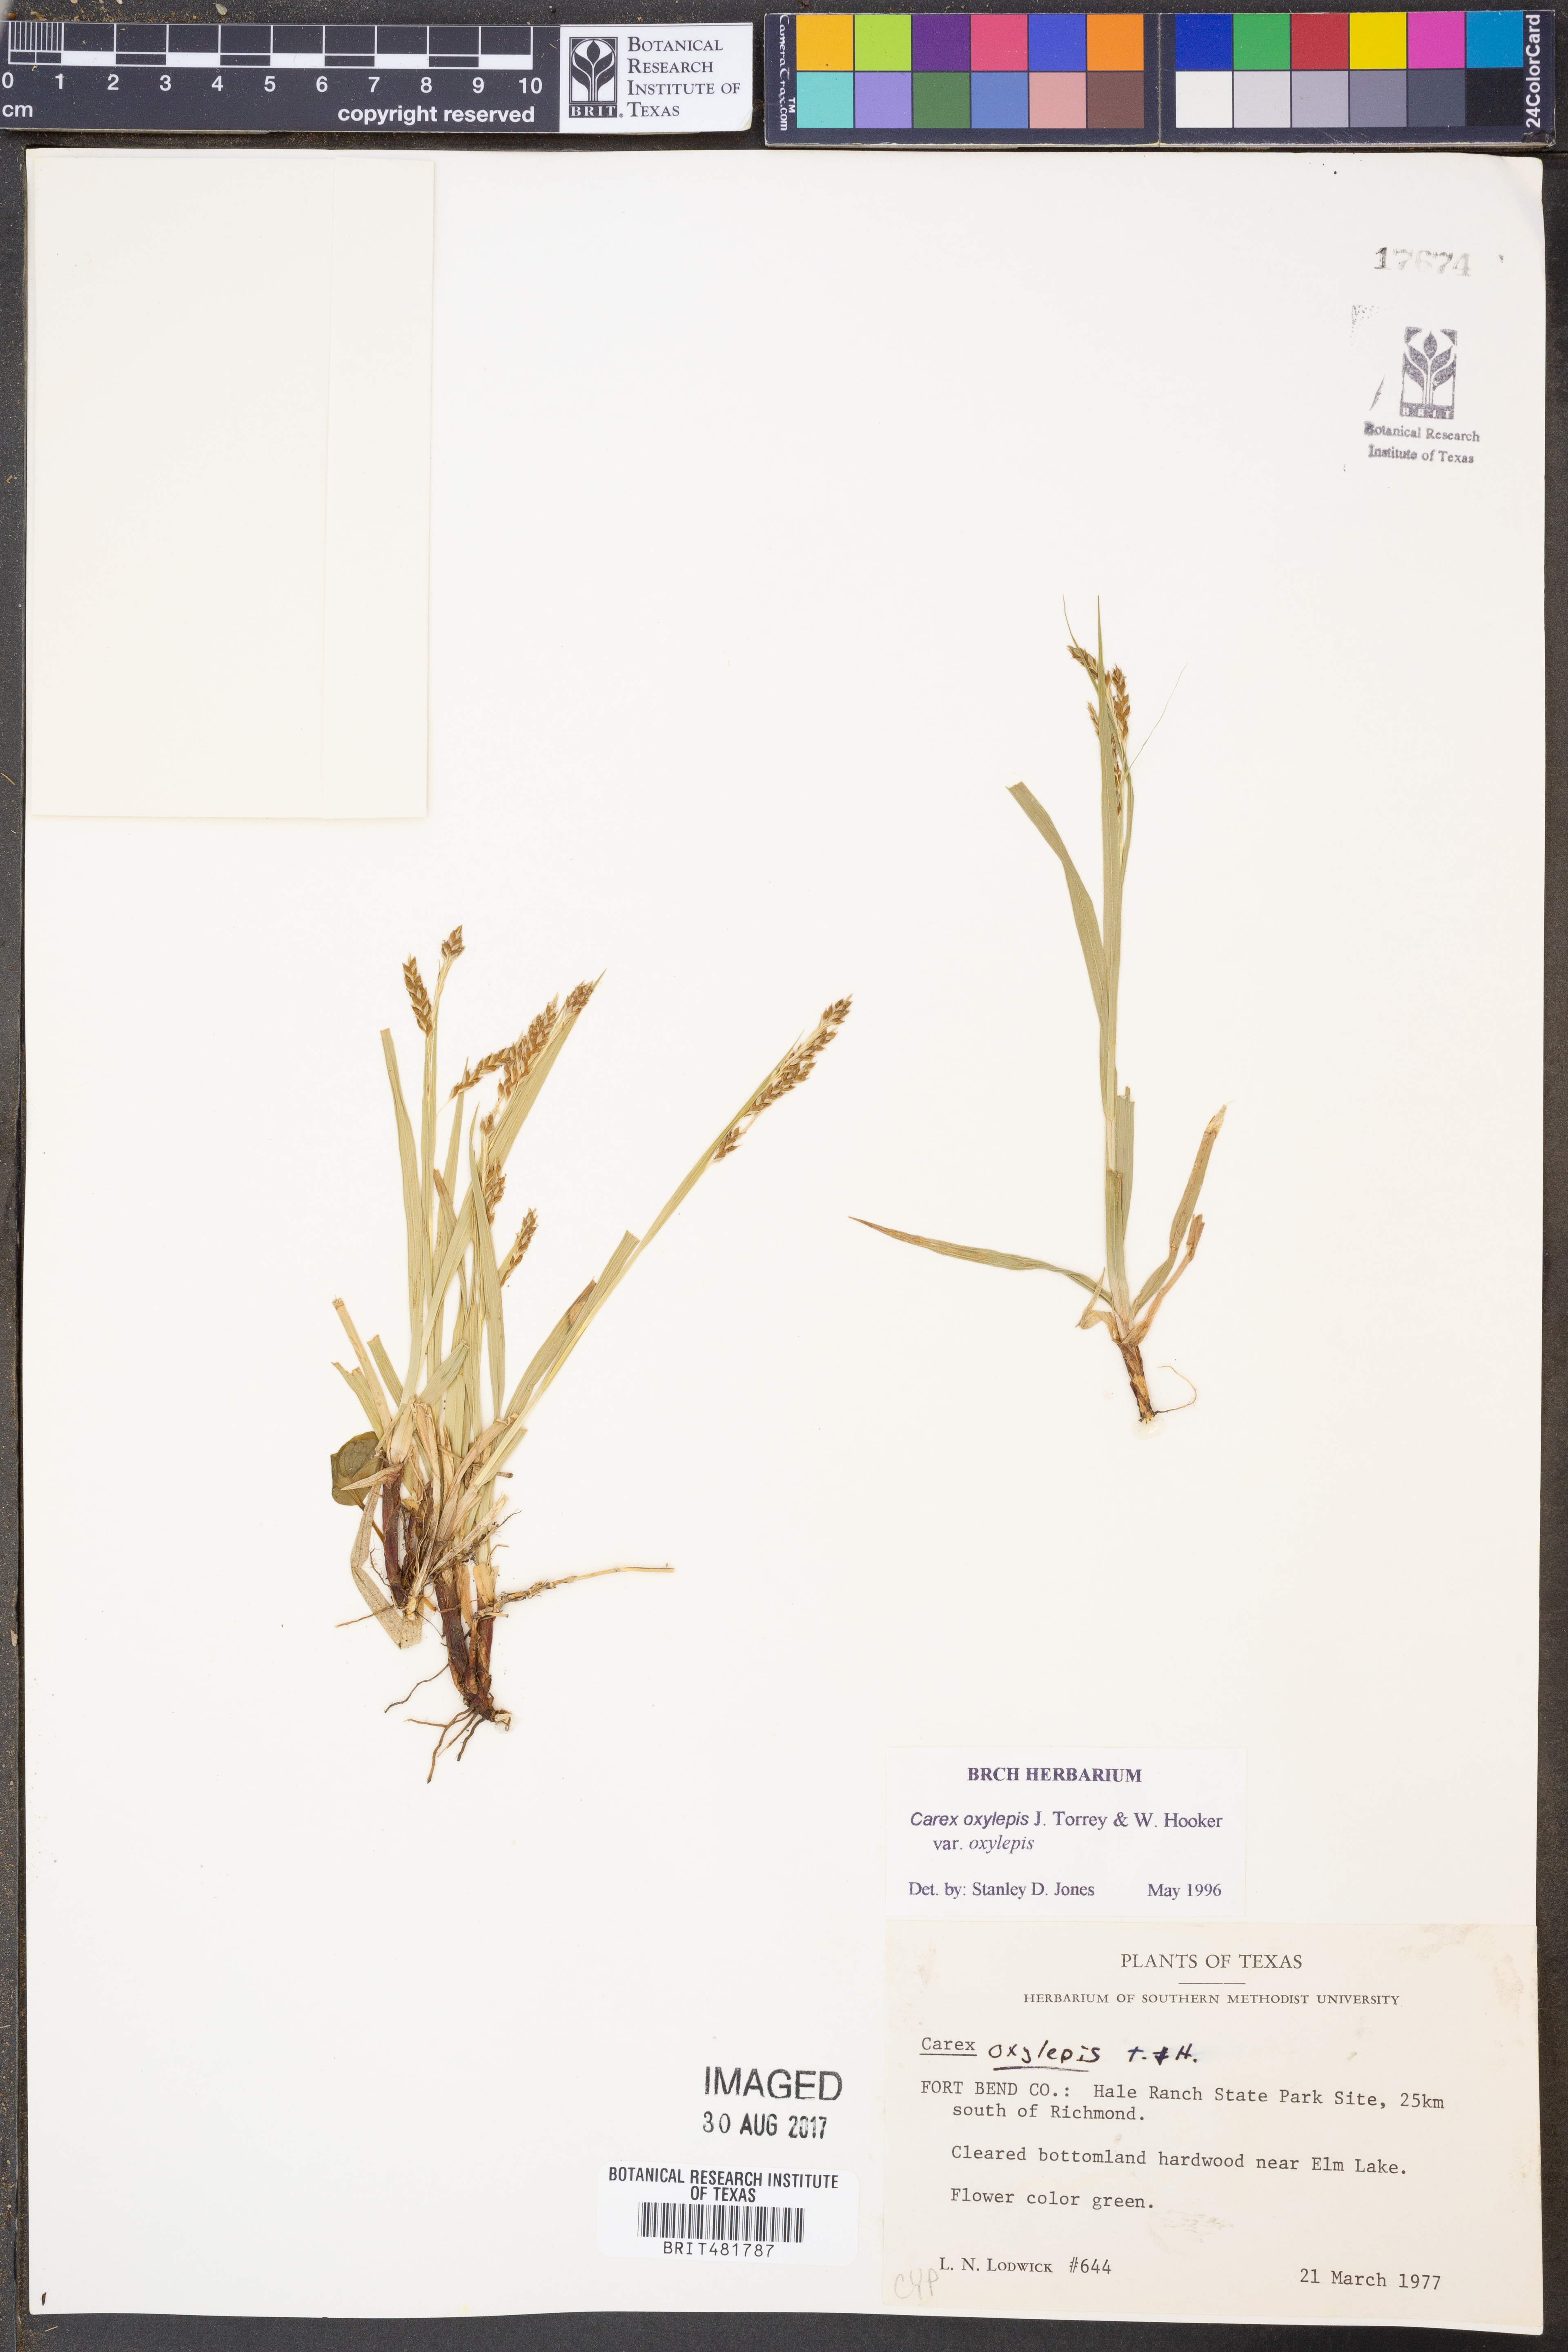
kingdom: Plantae
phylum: Tracheophyta
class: Liliopsida
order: Poales
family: Cyperaceae
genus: Carex
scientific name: Carex oxylepis
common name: Sharpscale sedge
